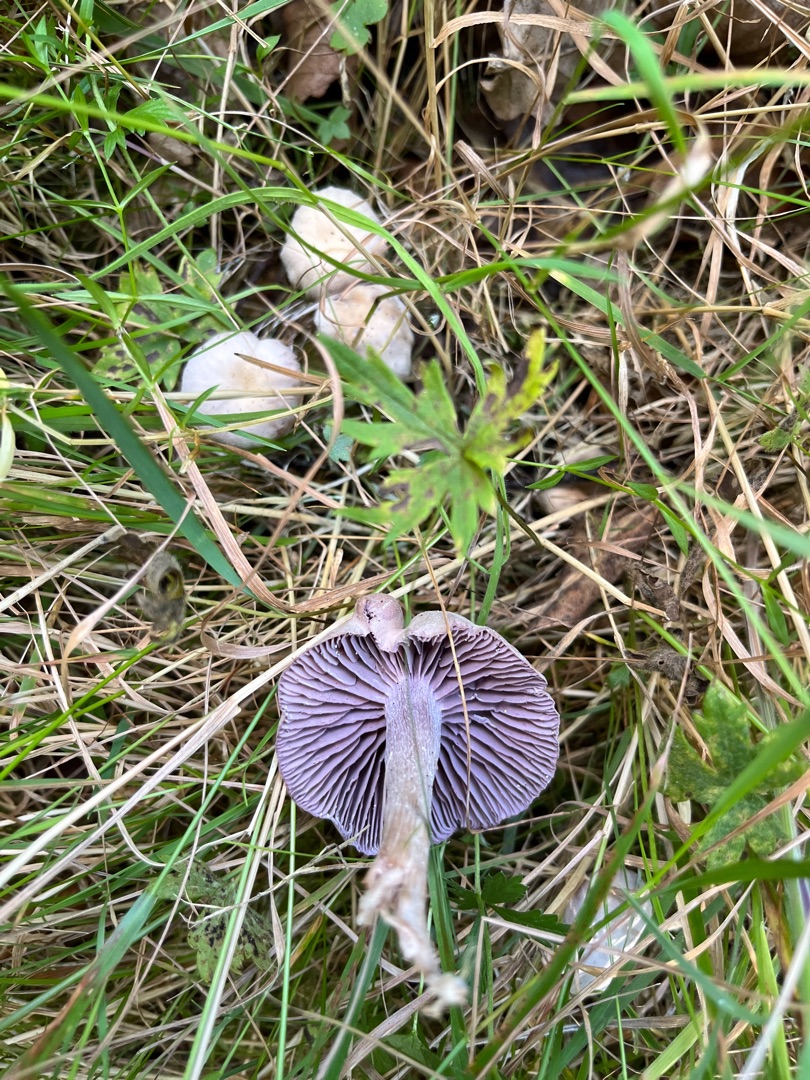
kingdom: Fungi
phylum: Basidiomycota
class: Agaricomycetes
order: Agaricales
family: Hydnangiaceae
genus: Laccaria
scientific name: Laccaria amethystina
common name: Violet ametysthat
